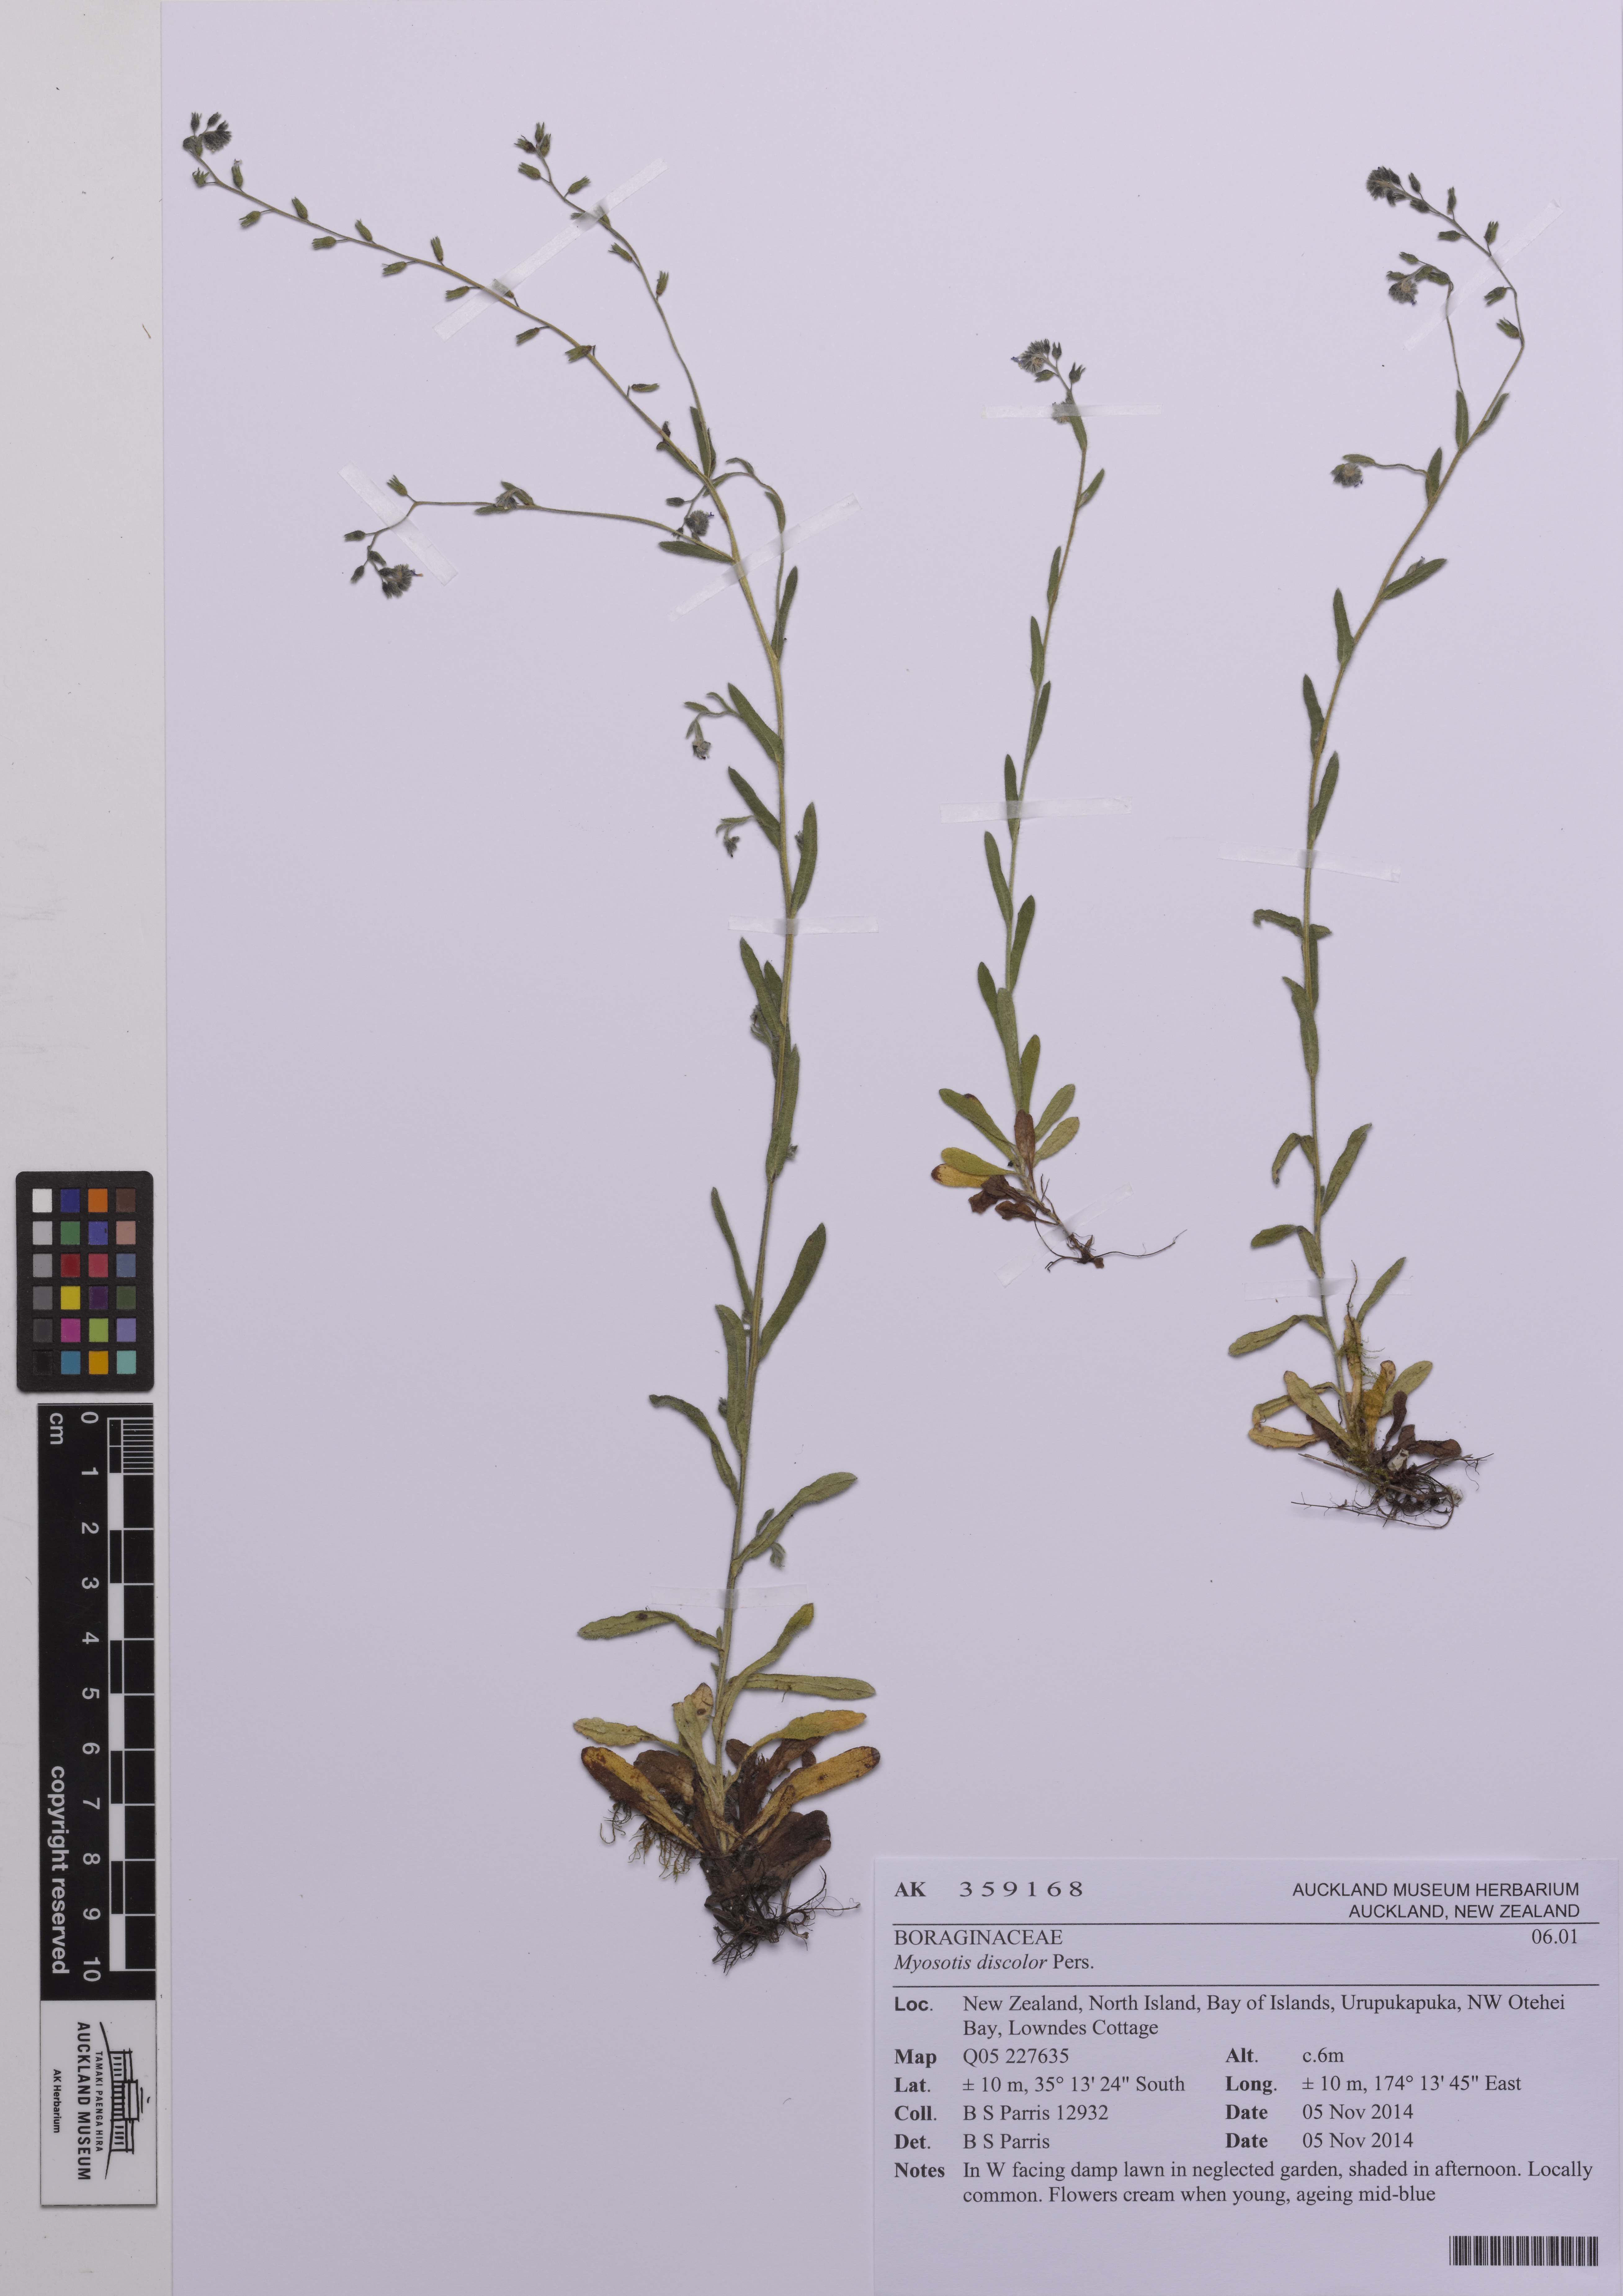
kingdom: Plantae
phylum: Tracheophyta
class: Magnoliopsida
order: Boraginales
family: Boraginaceae
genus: Myosotis
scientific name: Myosotis discolor
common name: Changing forget-me-not
